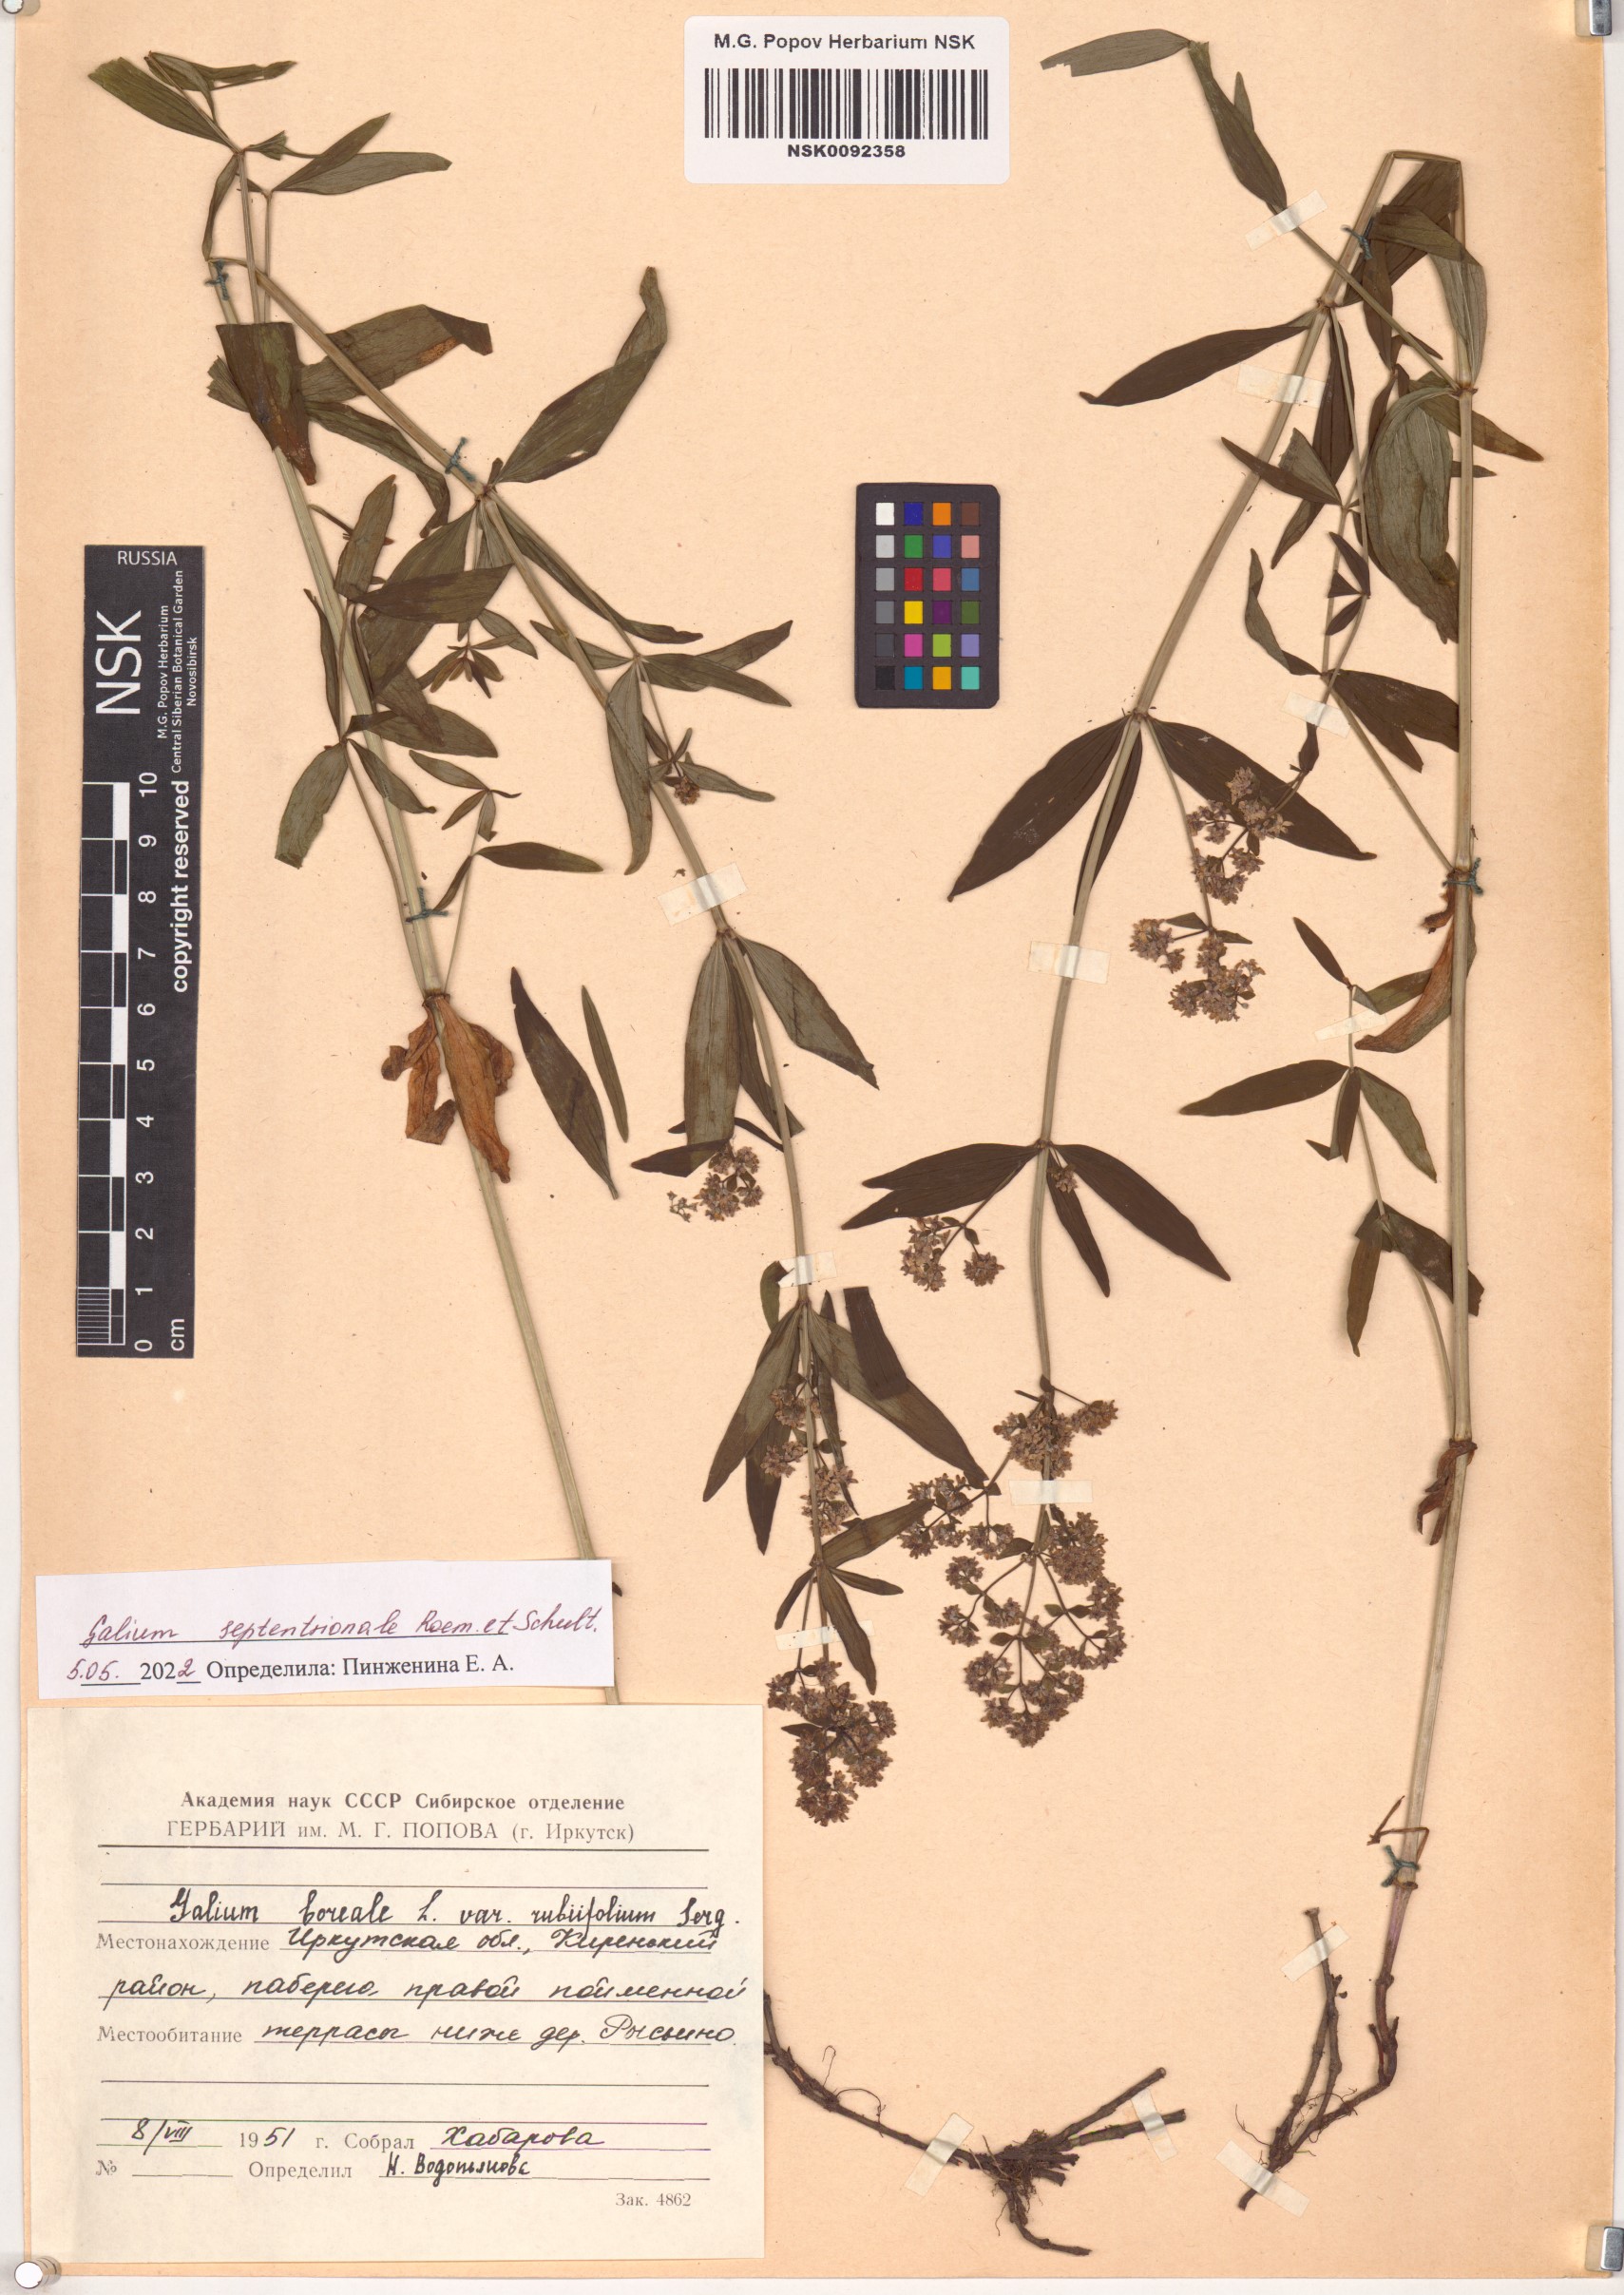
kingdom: Plantae
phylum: Tracheophyta
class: Magnoliopsida
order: Gentianales
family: Rubiaceae
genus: Galium
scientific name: Galium boreale
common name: Northern bedstraw
